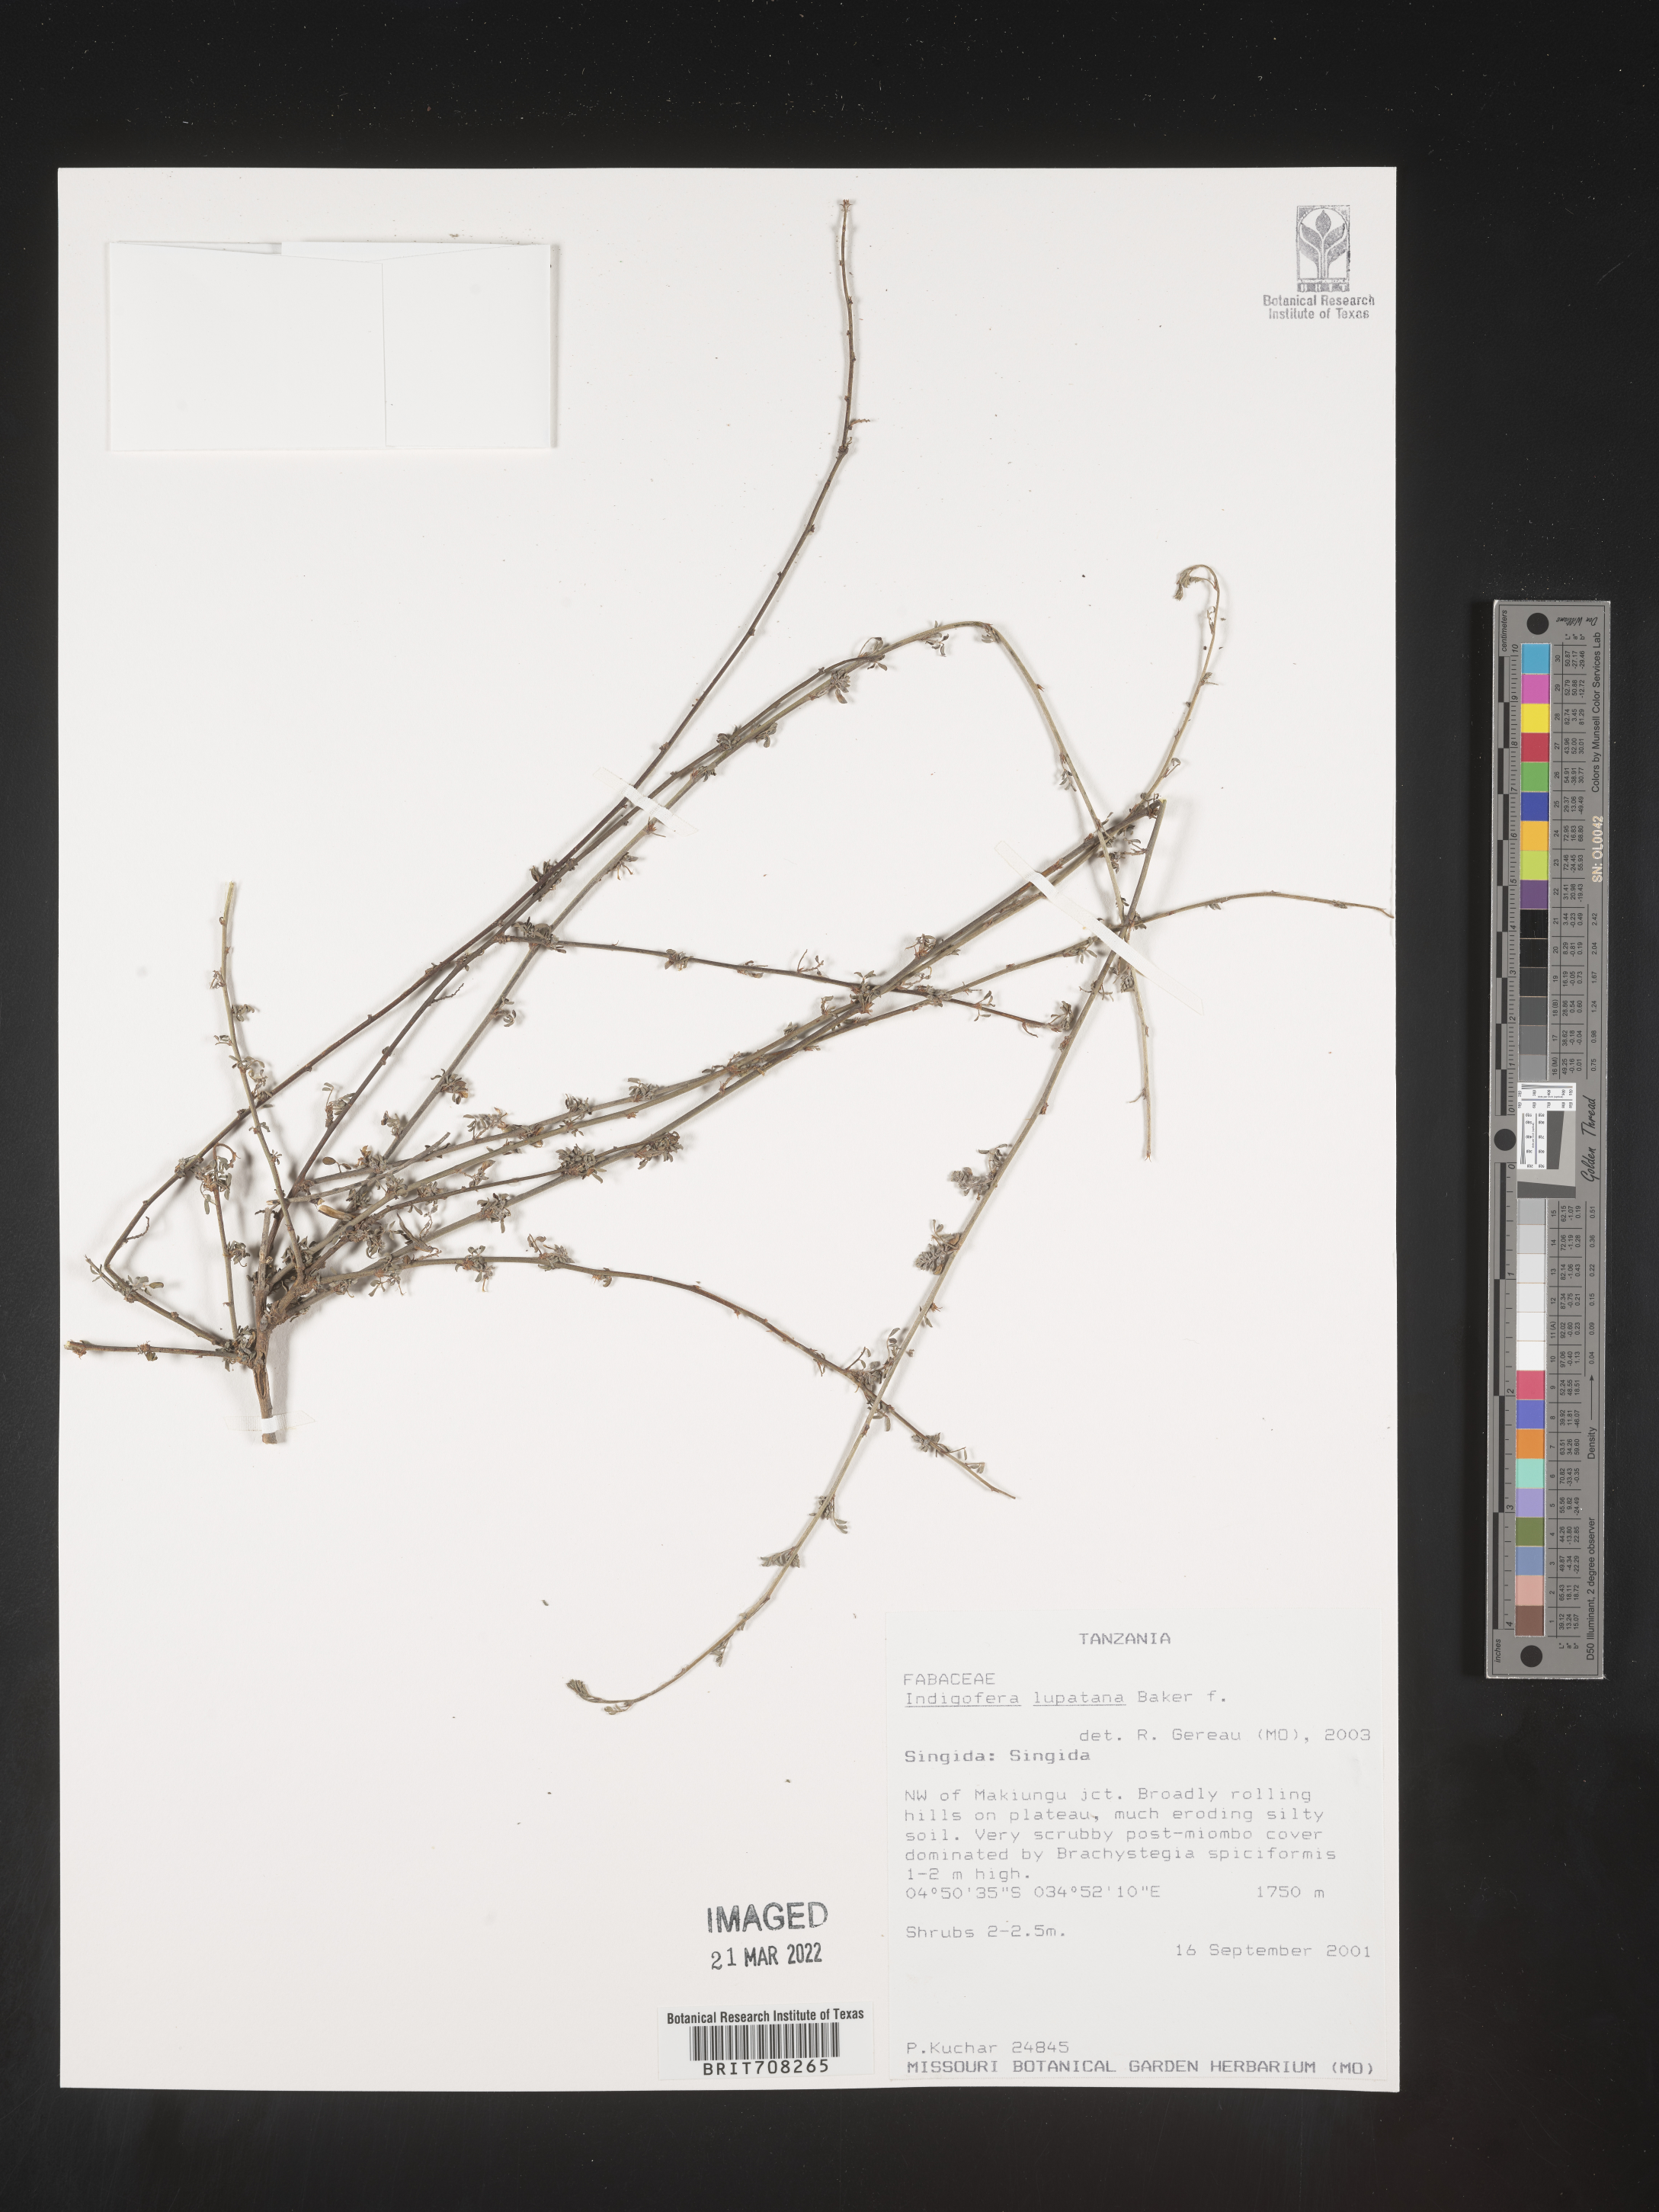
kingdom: Plantae
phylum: Tracheophyta
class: Magnoliopsida
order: Fabales
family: Fabaceae
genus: Indigofera
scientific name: Indigofera
